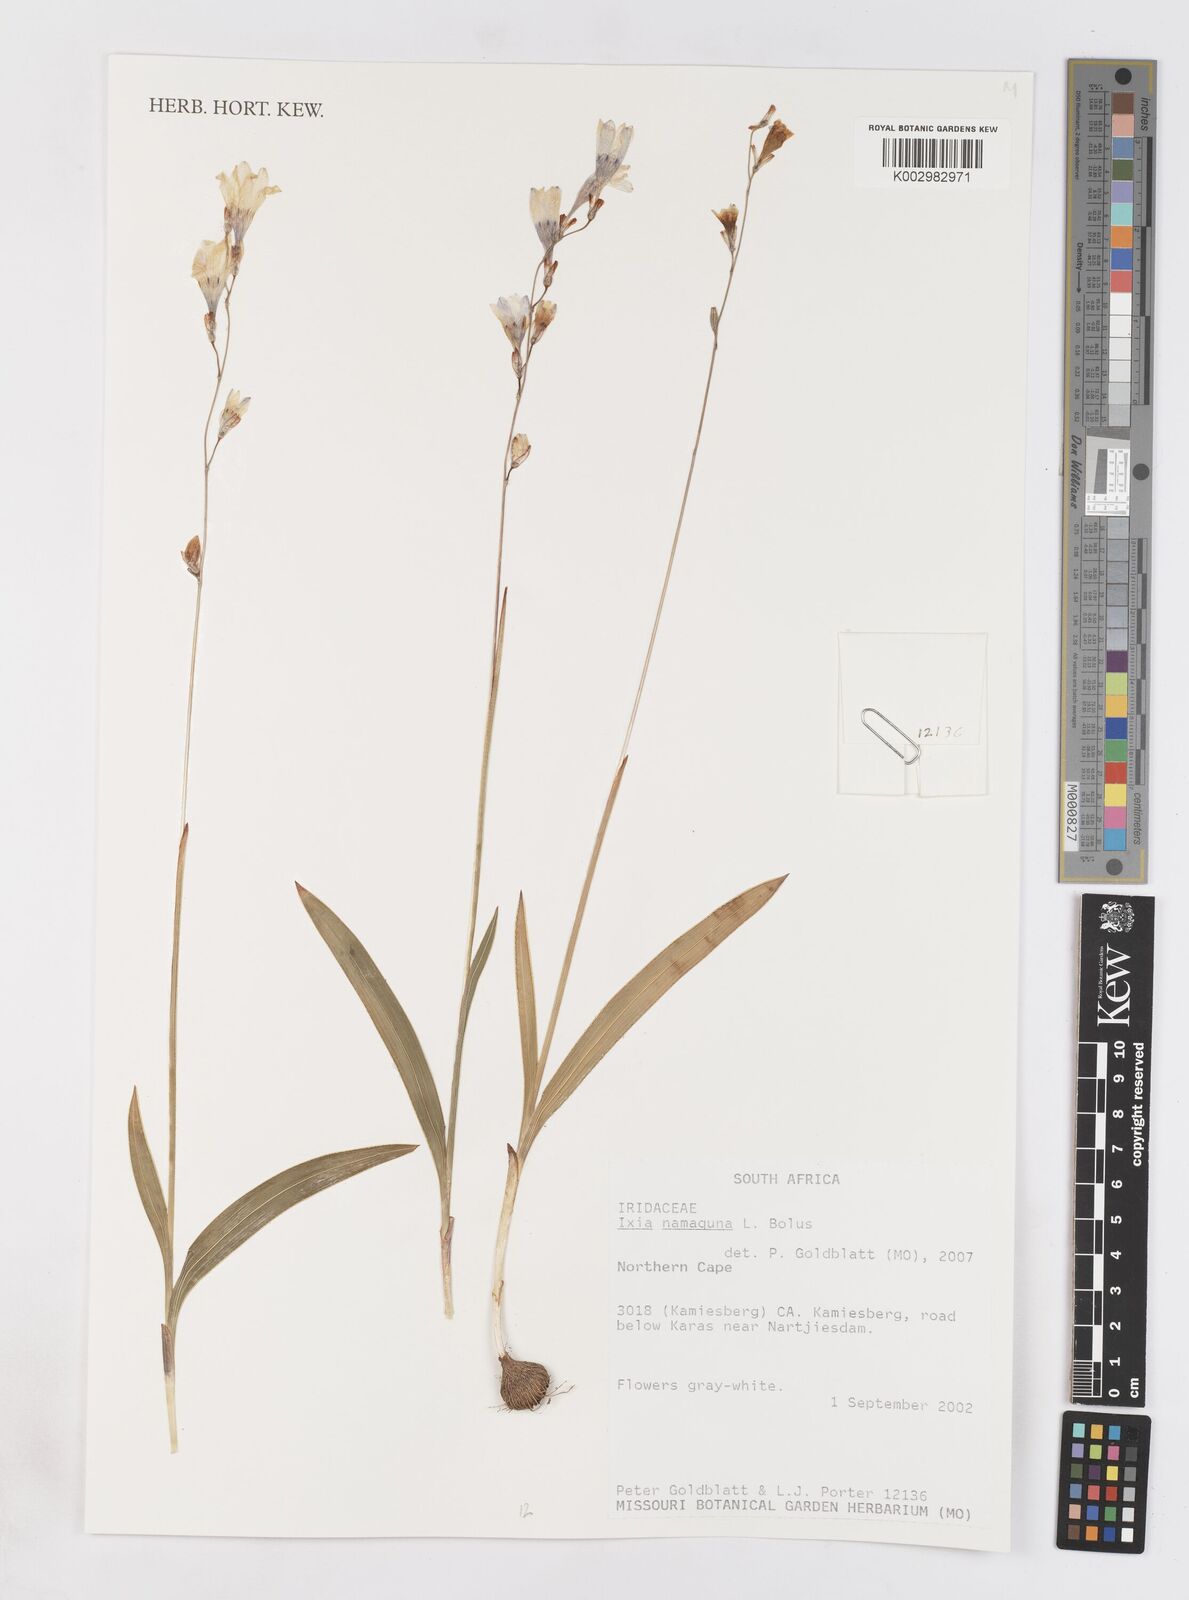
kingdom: Plantae
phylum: Tracheophyta
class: Liliopsida
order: Asparagales
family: Iridaceae
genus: Ixia
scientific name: Ixia namaquana
